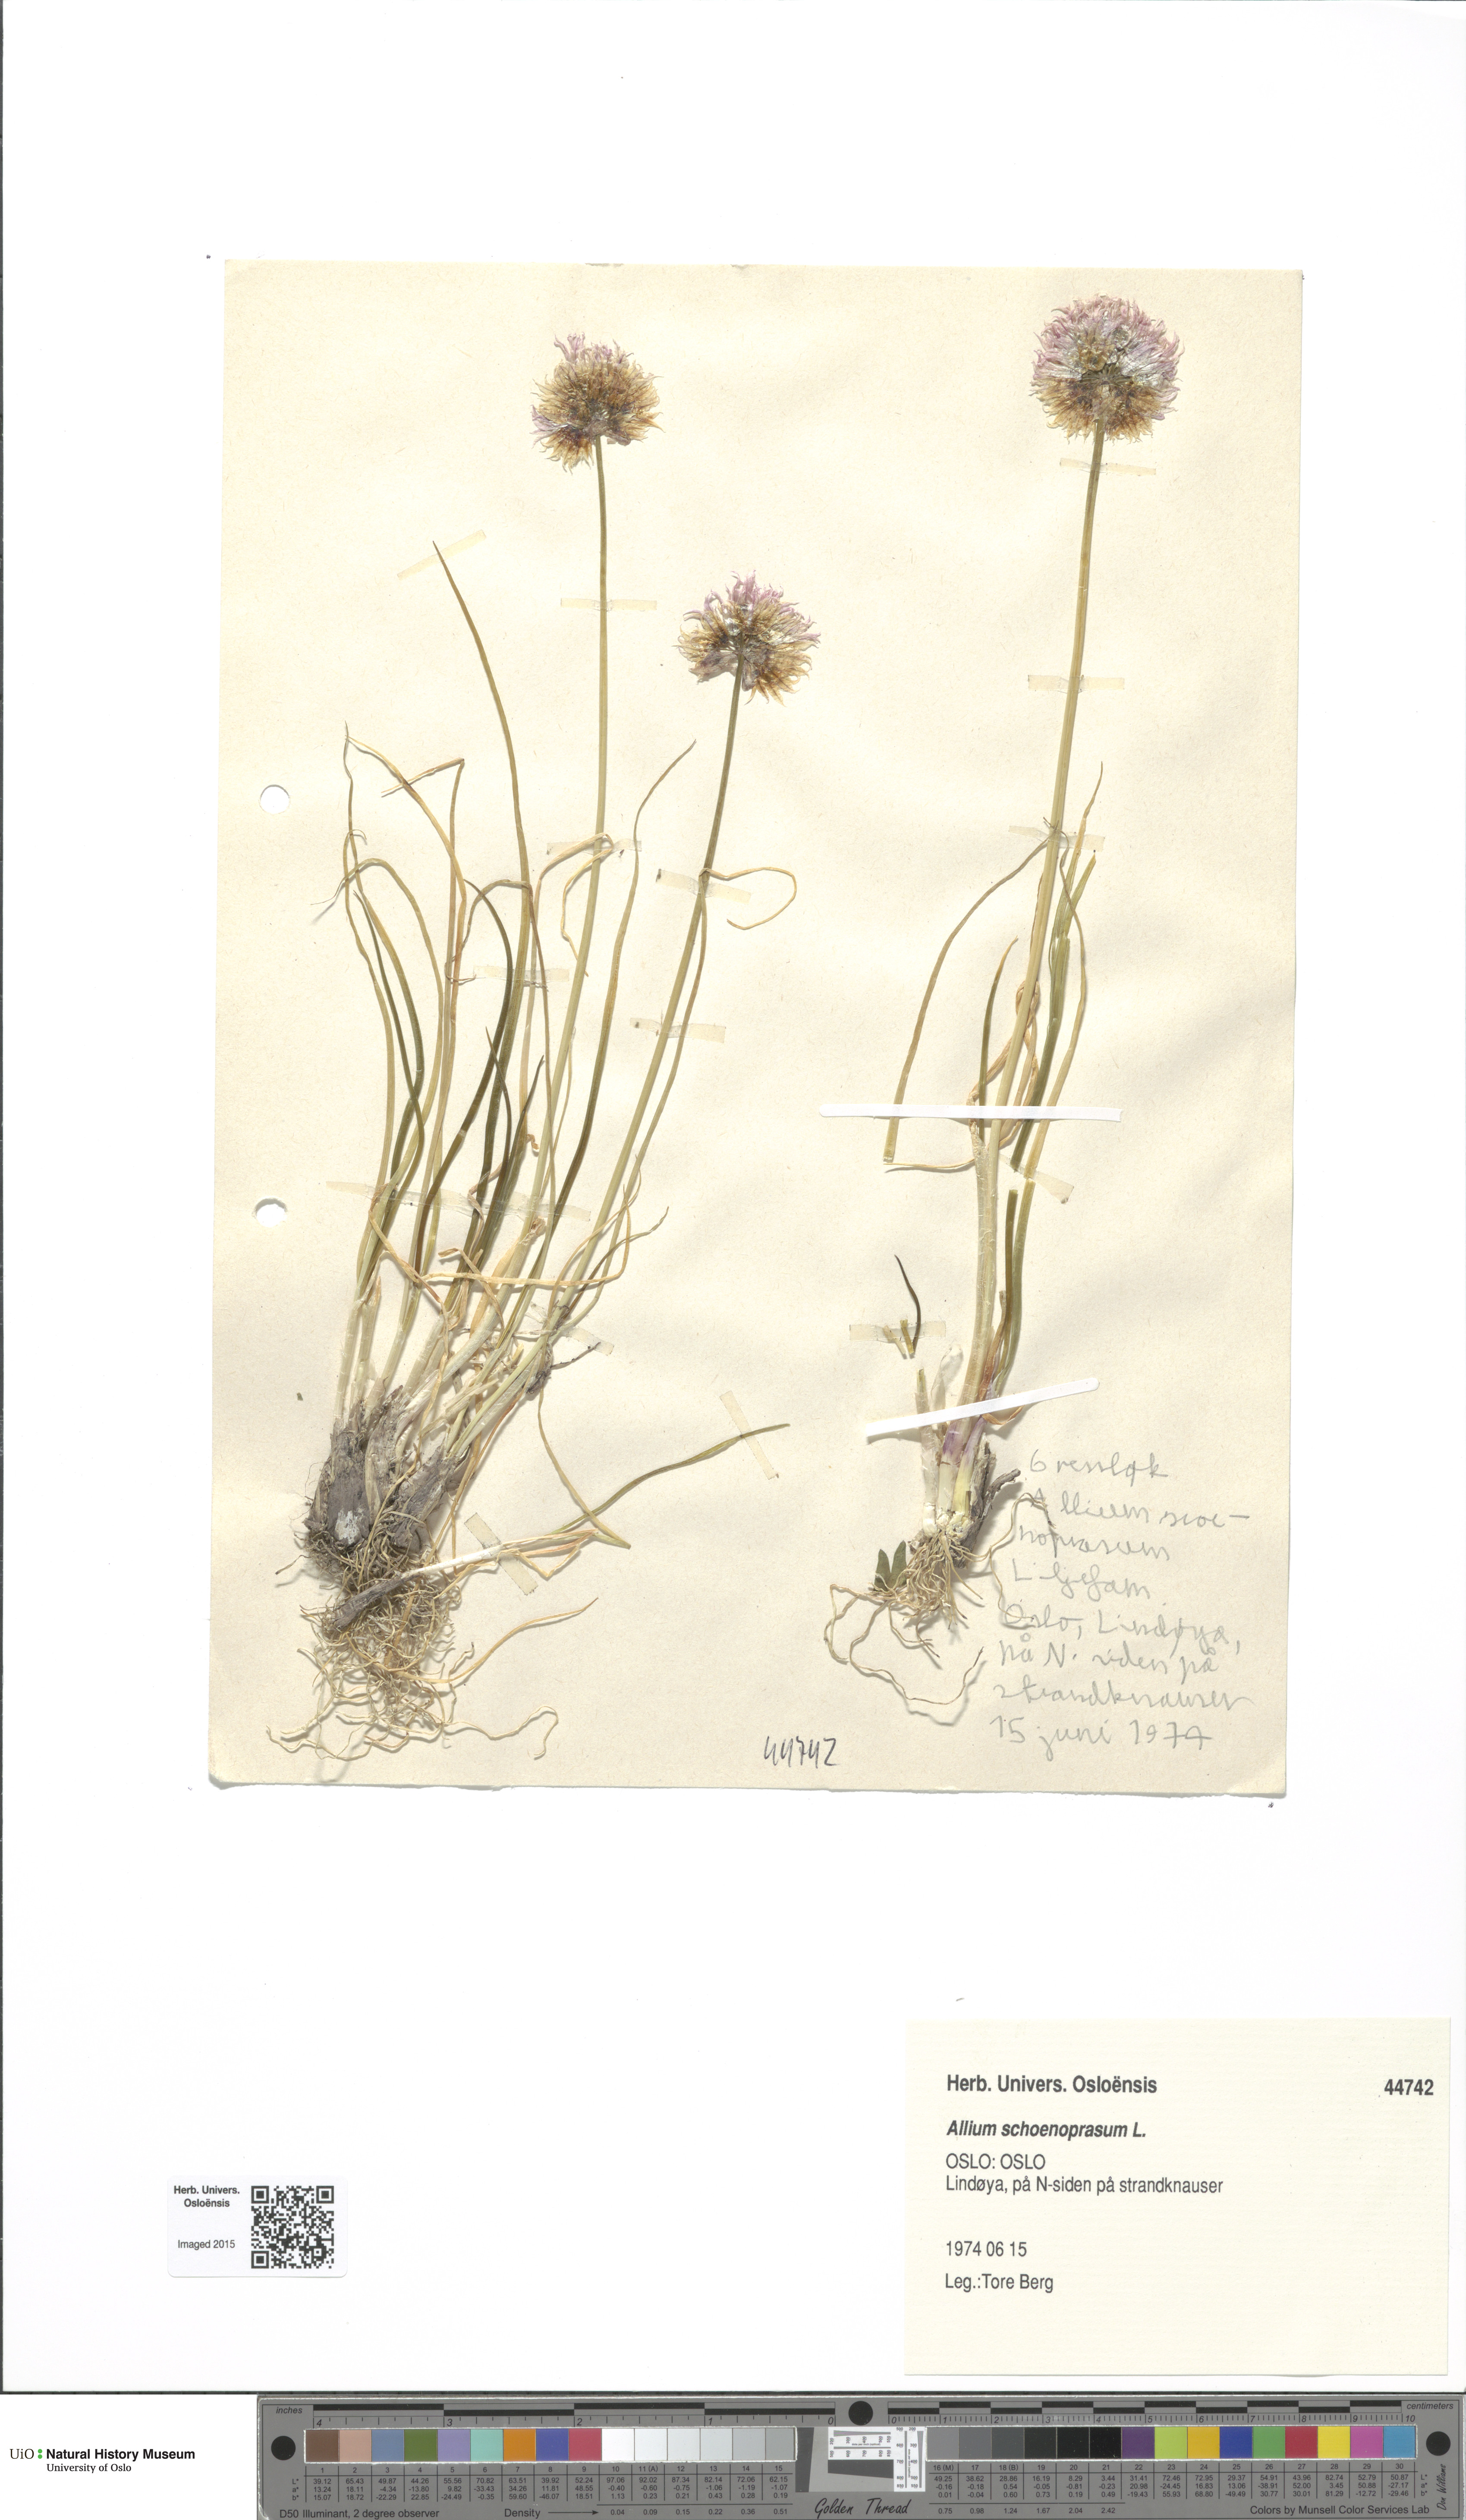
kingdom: Plantae
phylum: Tracheophyta
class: Liliopsida
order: Asparagales
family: Amaryllidaceae
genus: Allium
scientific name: Allium schoenoprasum
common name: Chives
